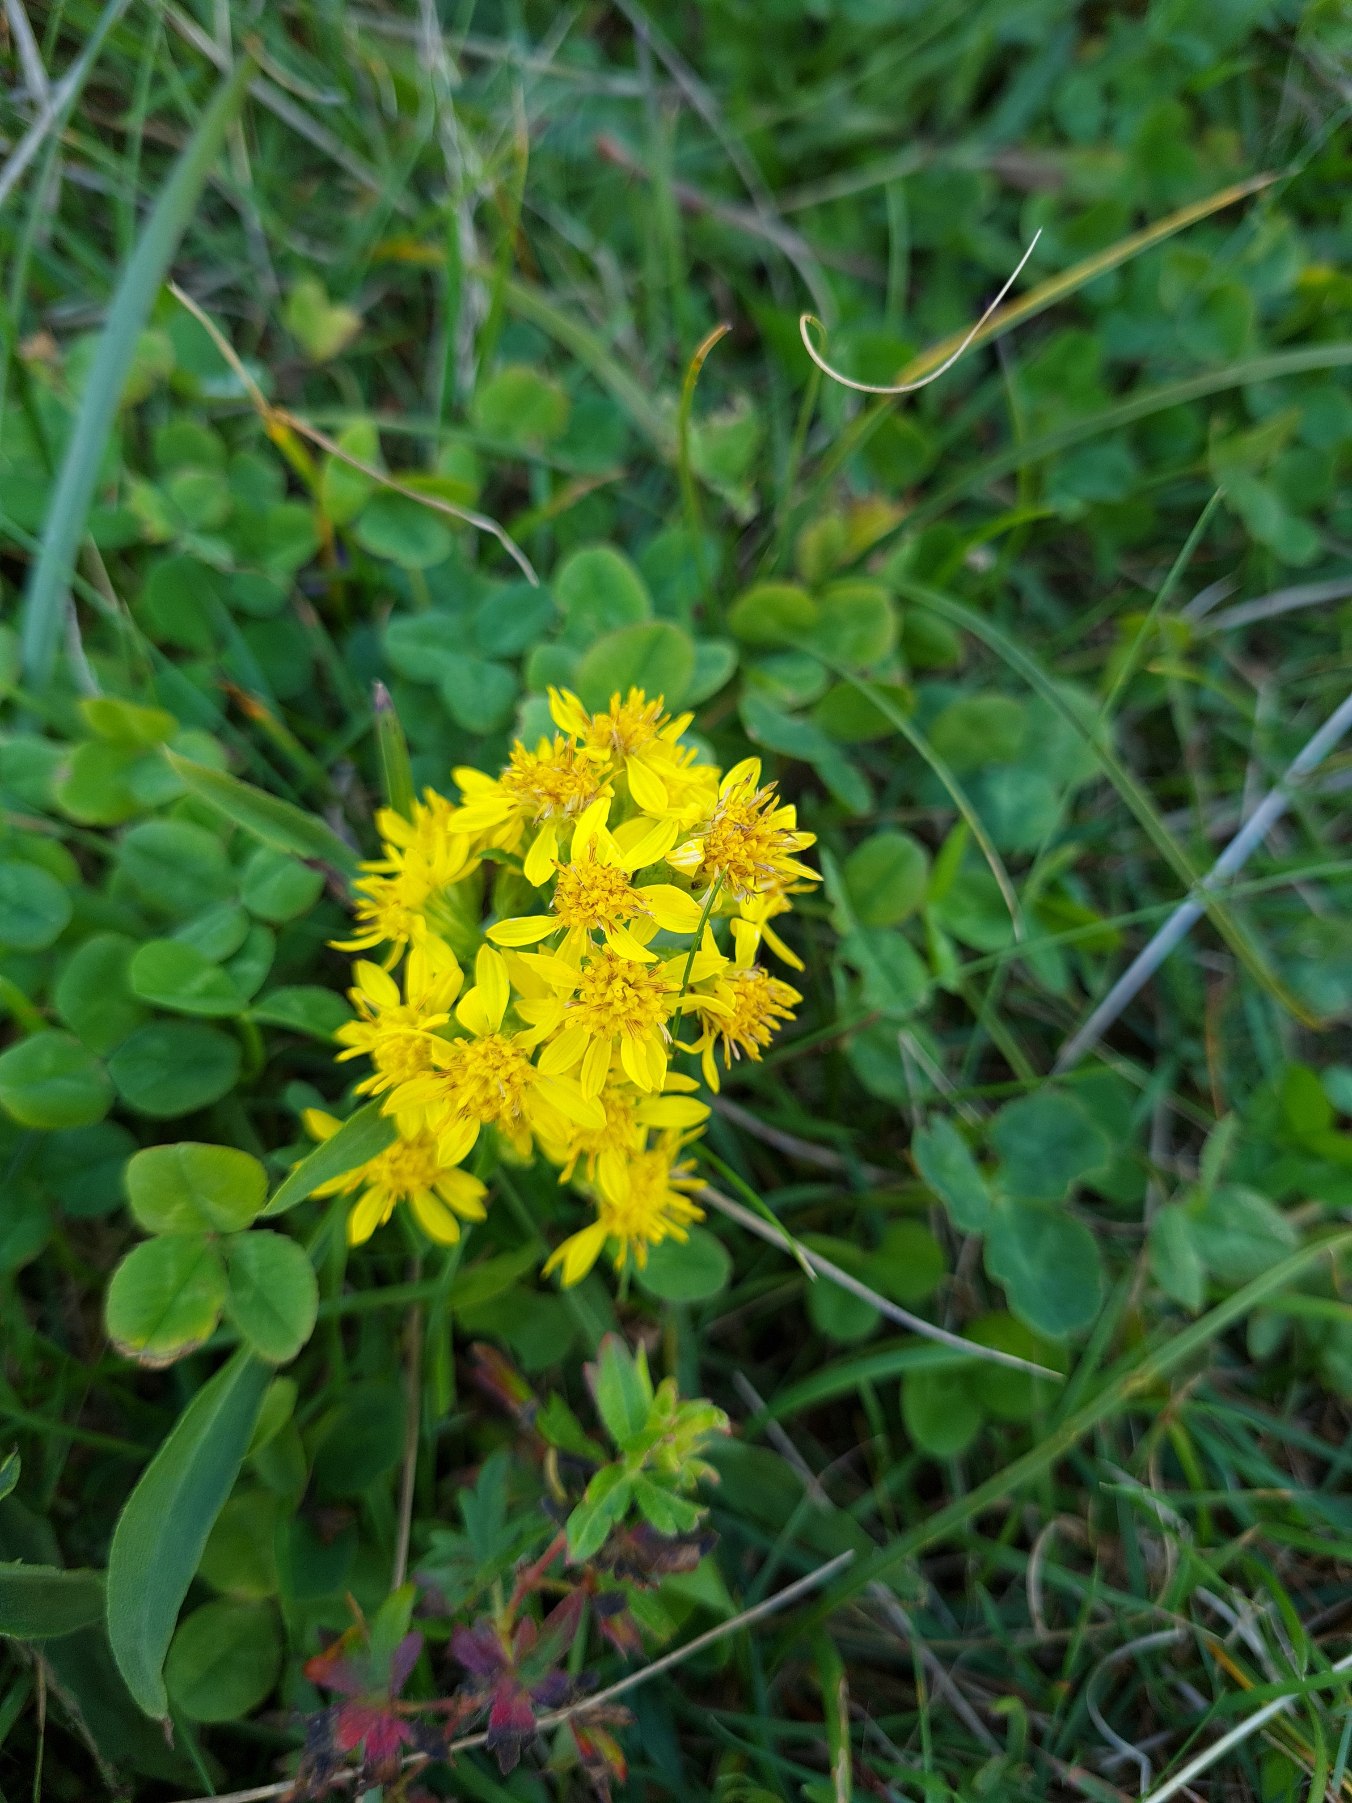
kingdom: Plantae
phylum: Tracheophyta
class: Magnoliopsida
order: Asterales
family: Asteraceae
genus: Solidago
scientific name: Solidago virgaurea
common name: Almindelig gyldenris
